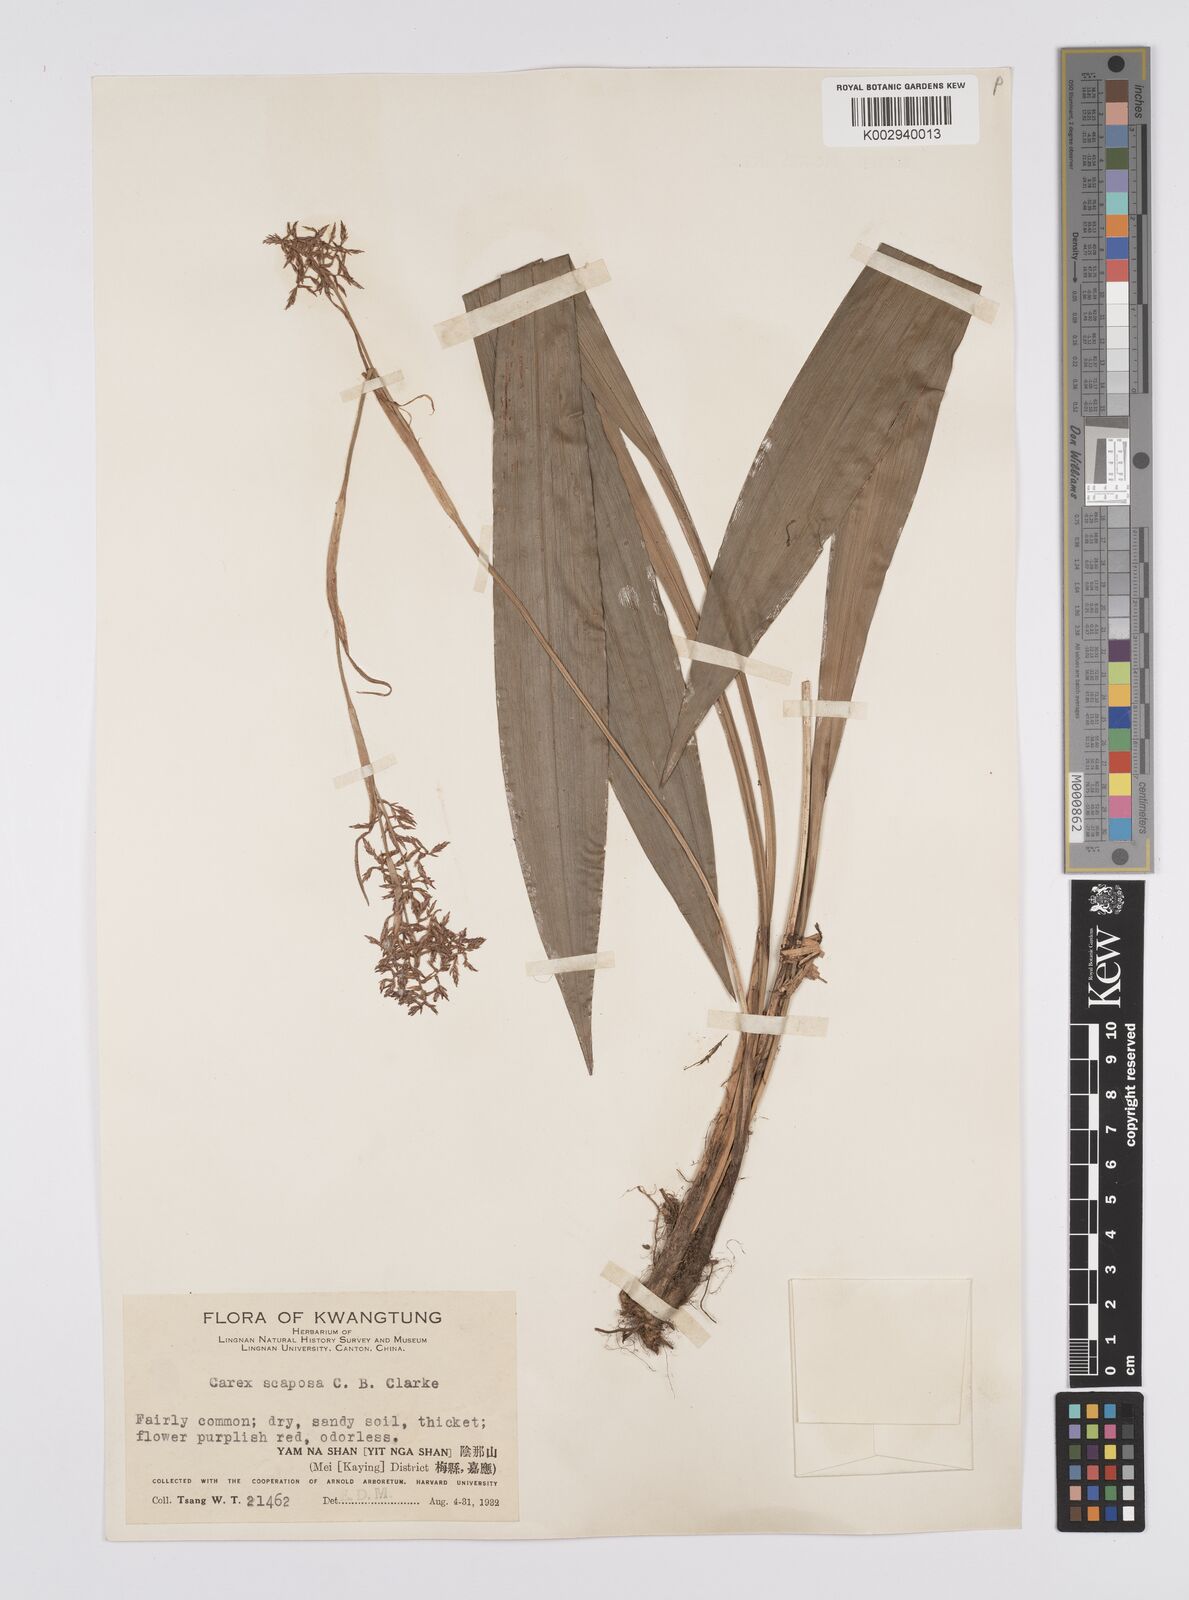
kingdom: Plantae
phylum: Tracheophyta
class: Liliopsida
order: Poales
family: Cyperaceae
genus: Carex
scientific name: Carex scaposa
